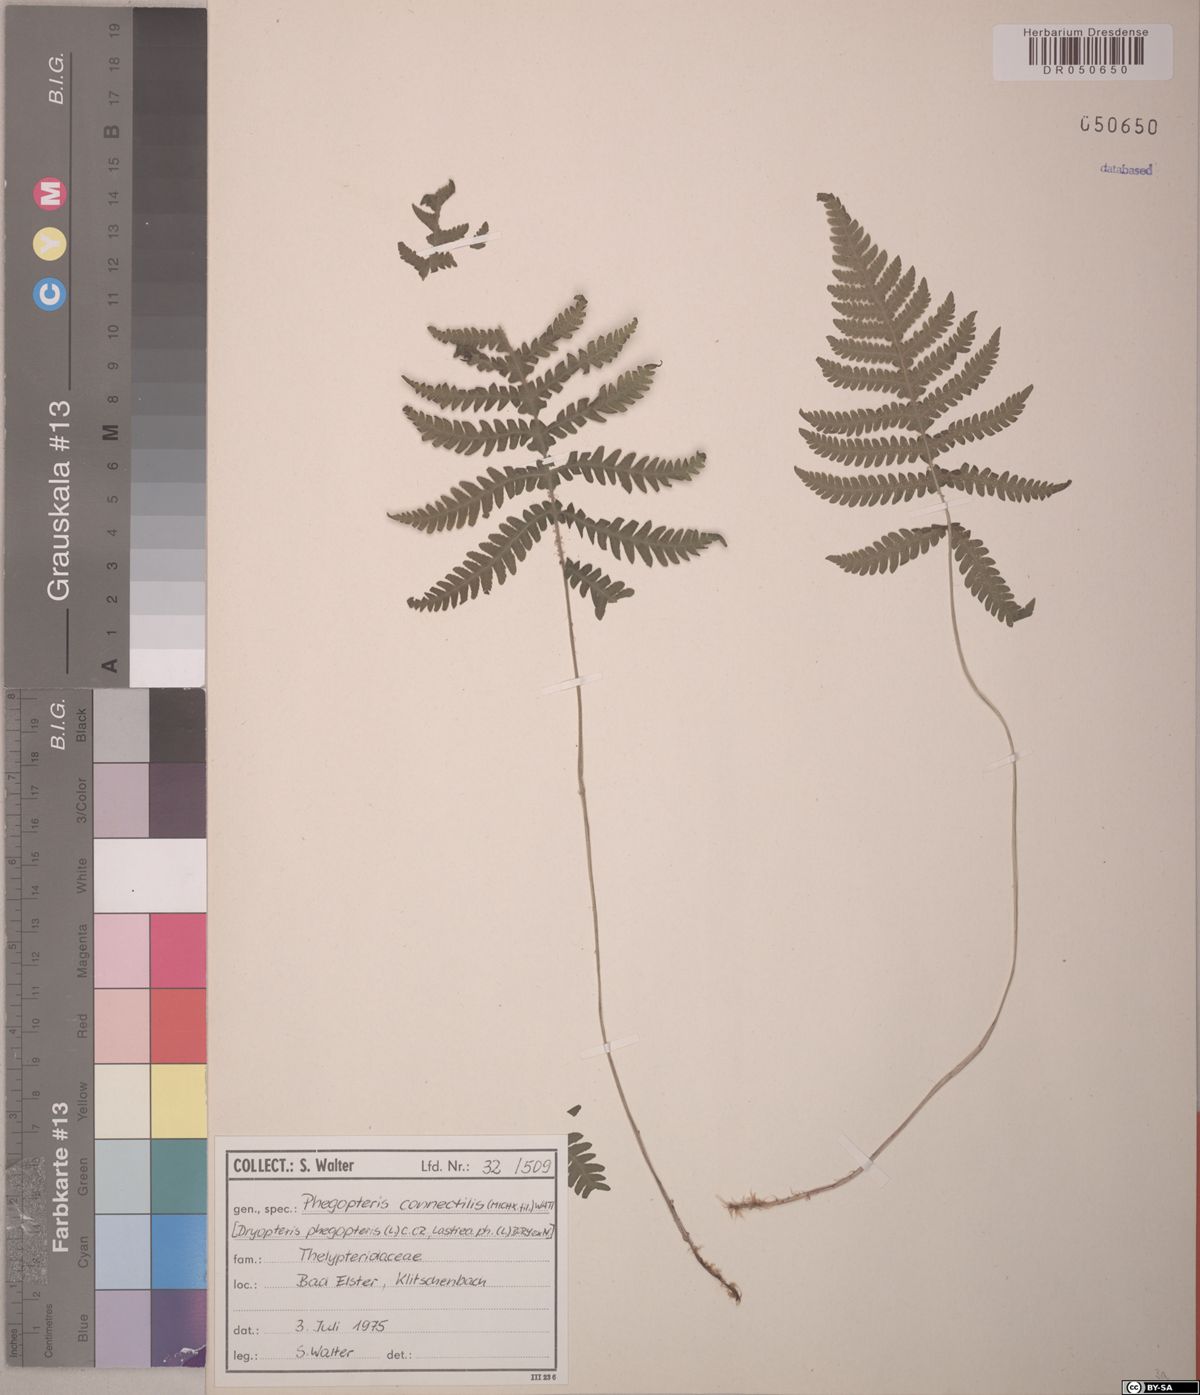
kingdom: Plantae
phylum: Tracheophyta
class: Polypodiopsida
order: Polypodiales
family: Thelypteridaceae
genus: Phegopteris
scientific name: Phegopteris connectilis
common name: Beech fern
